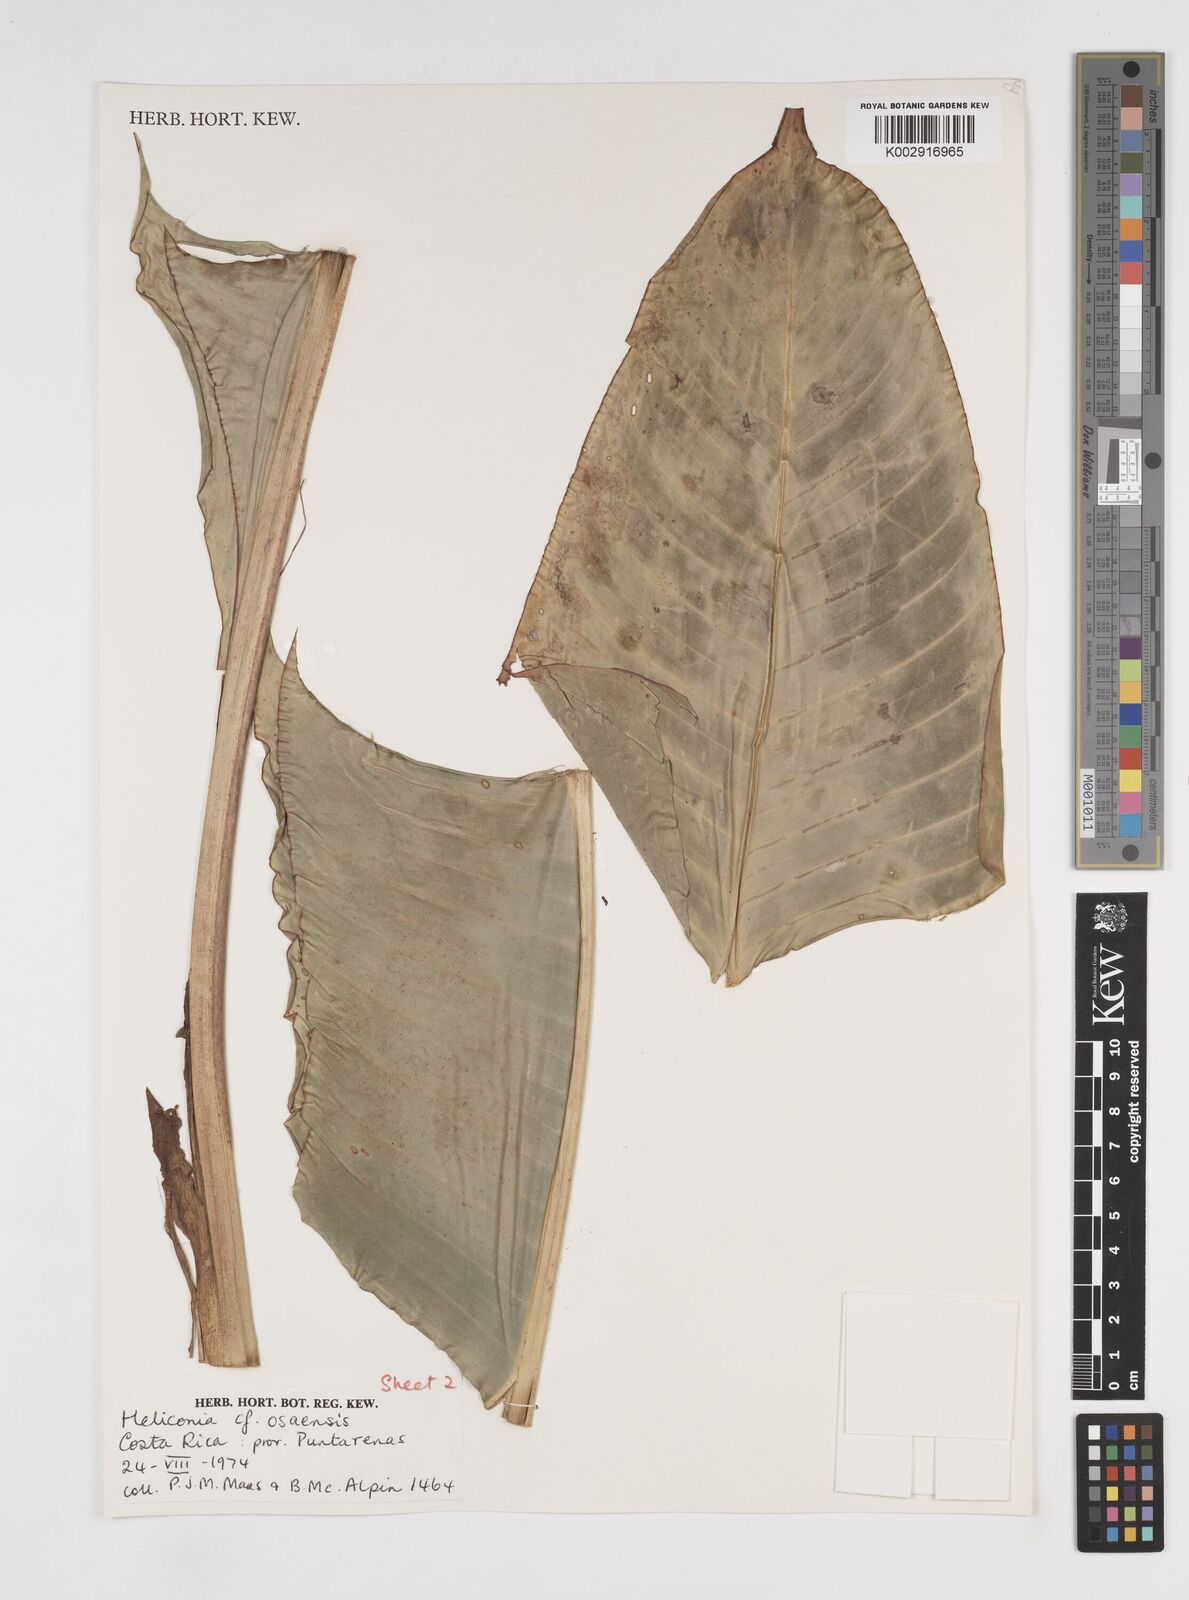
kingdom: Plantae
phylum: Tracheophyta
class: Liliopsida
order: Zingiberales
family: Heliconiaceae
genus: Heliconia
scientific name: Heliconia osaensis
